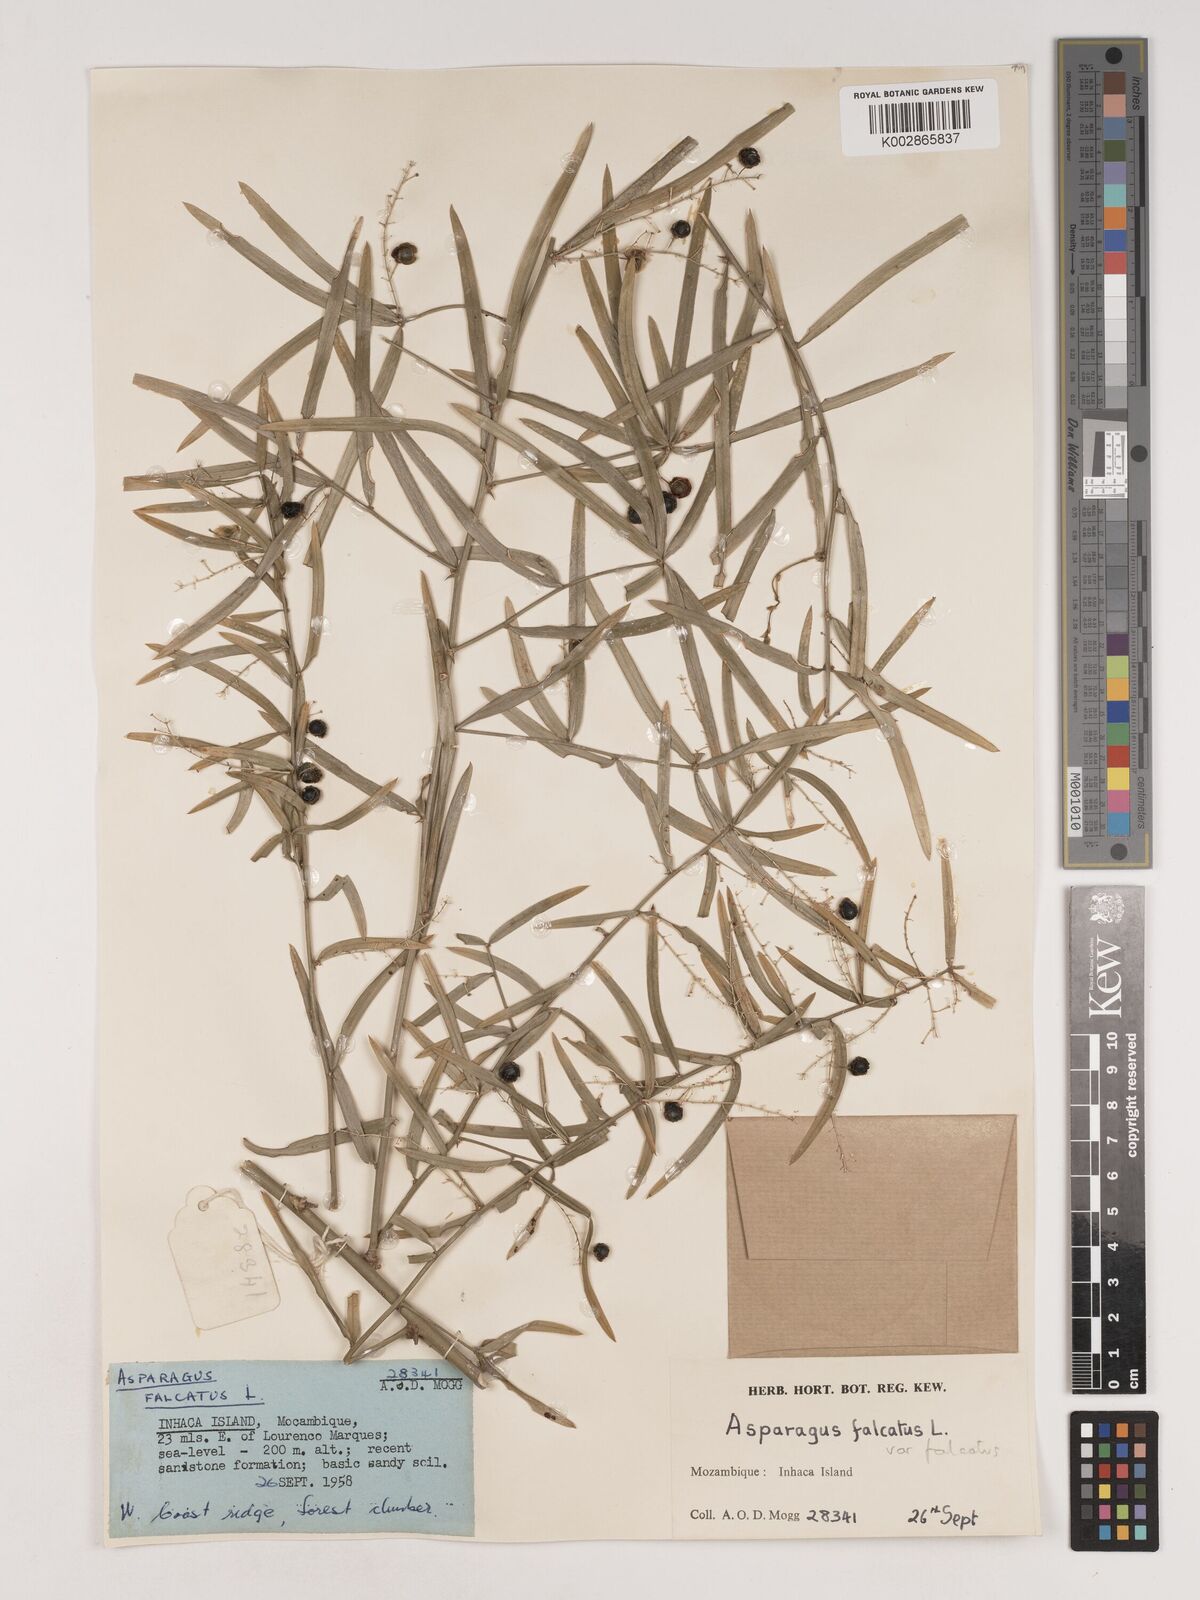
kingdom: Plantae
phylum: Tracheophyta
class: Liliopsida
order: Asparagales
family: Asparagaceae
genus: Asparagus
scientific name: Asparagus falcatus
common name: Asparagus
